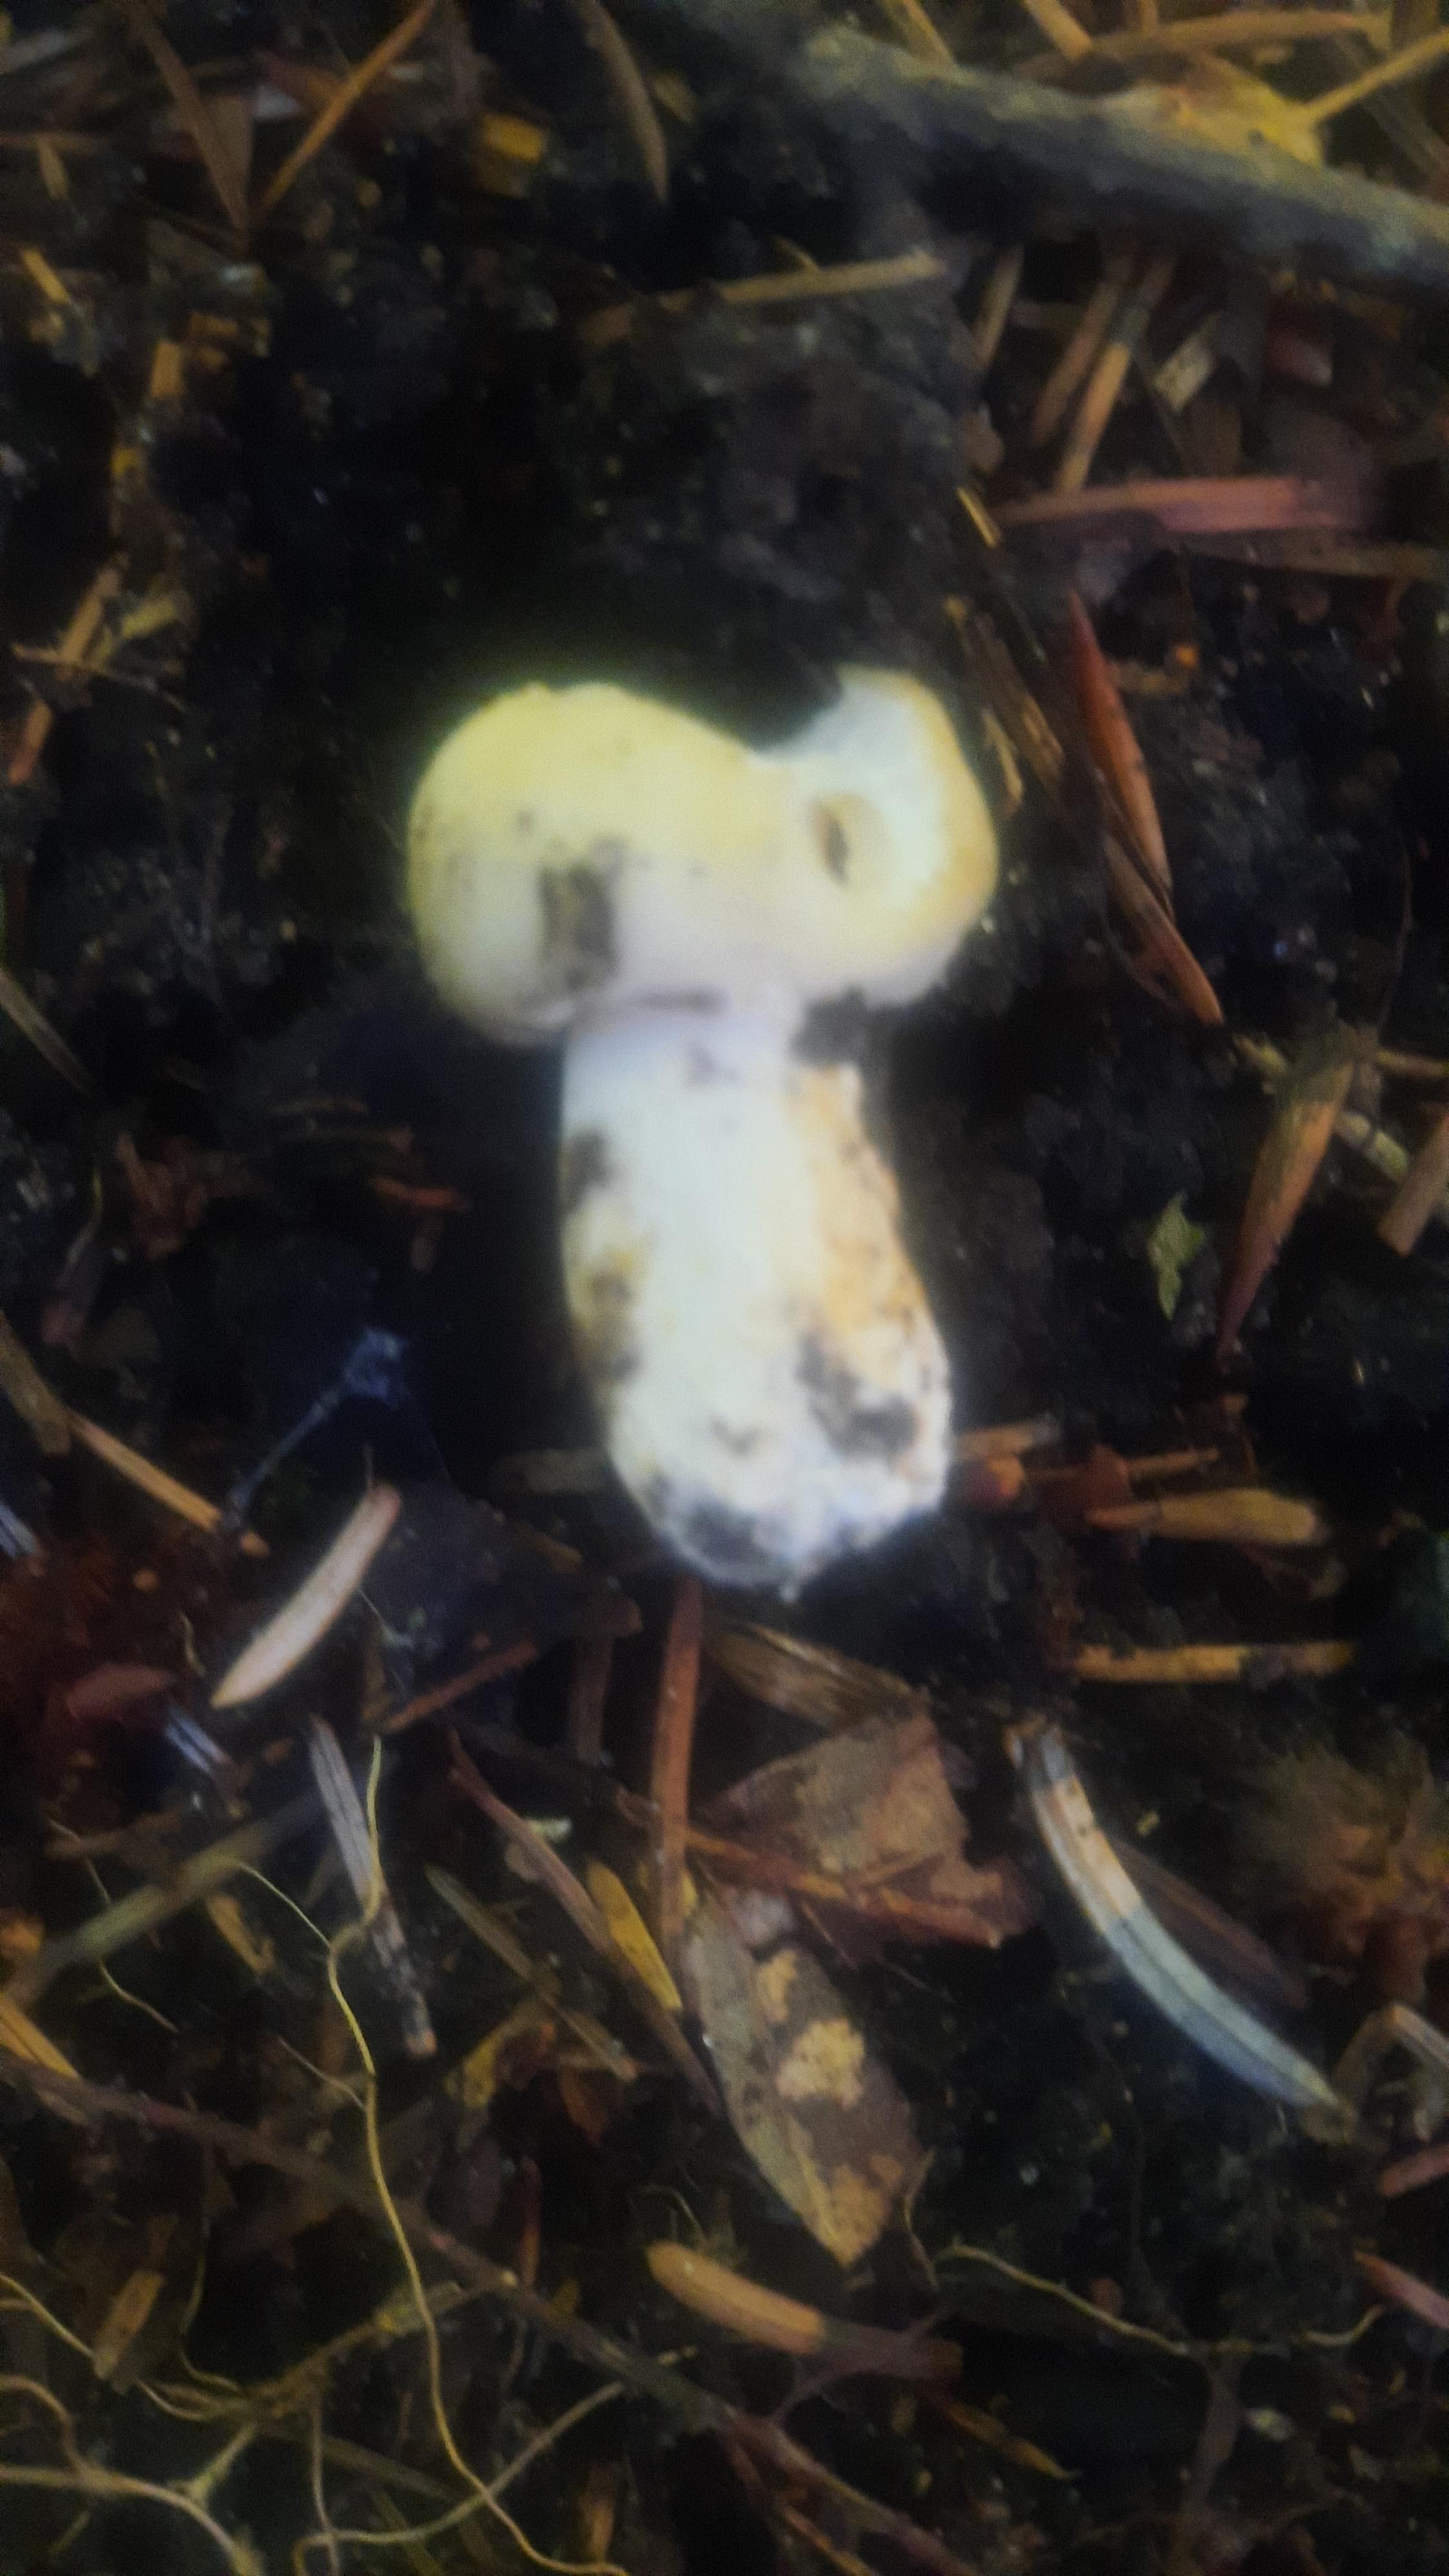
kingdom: Fungi
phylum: Basidiomycota
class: Agaricomycetes
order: Russulales
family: Russulaceae
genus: Russula
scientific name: Russula violeipes
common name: ferskengul skørhat
